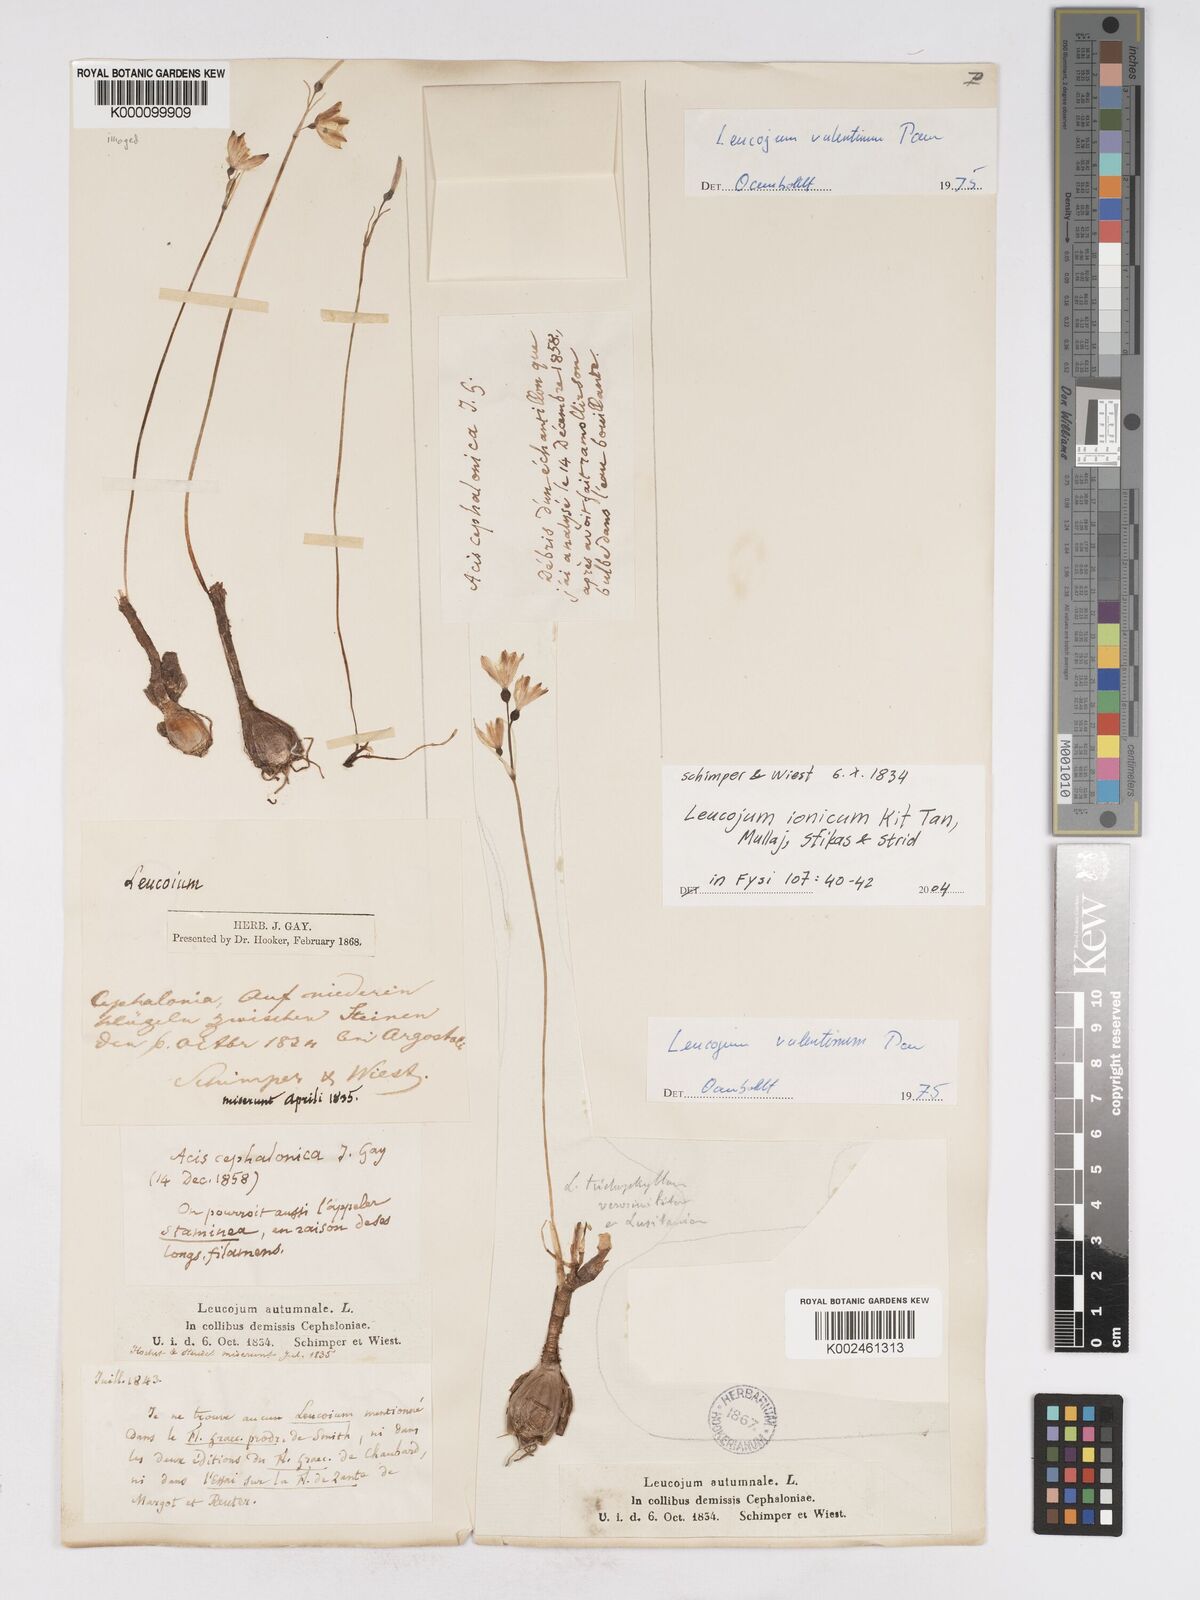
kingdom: Plantae
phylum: Tracheophyta
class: Liliopsida
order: Asparagales
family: Amaryllidaceae
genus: Acis
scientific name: Acis ionica
